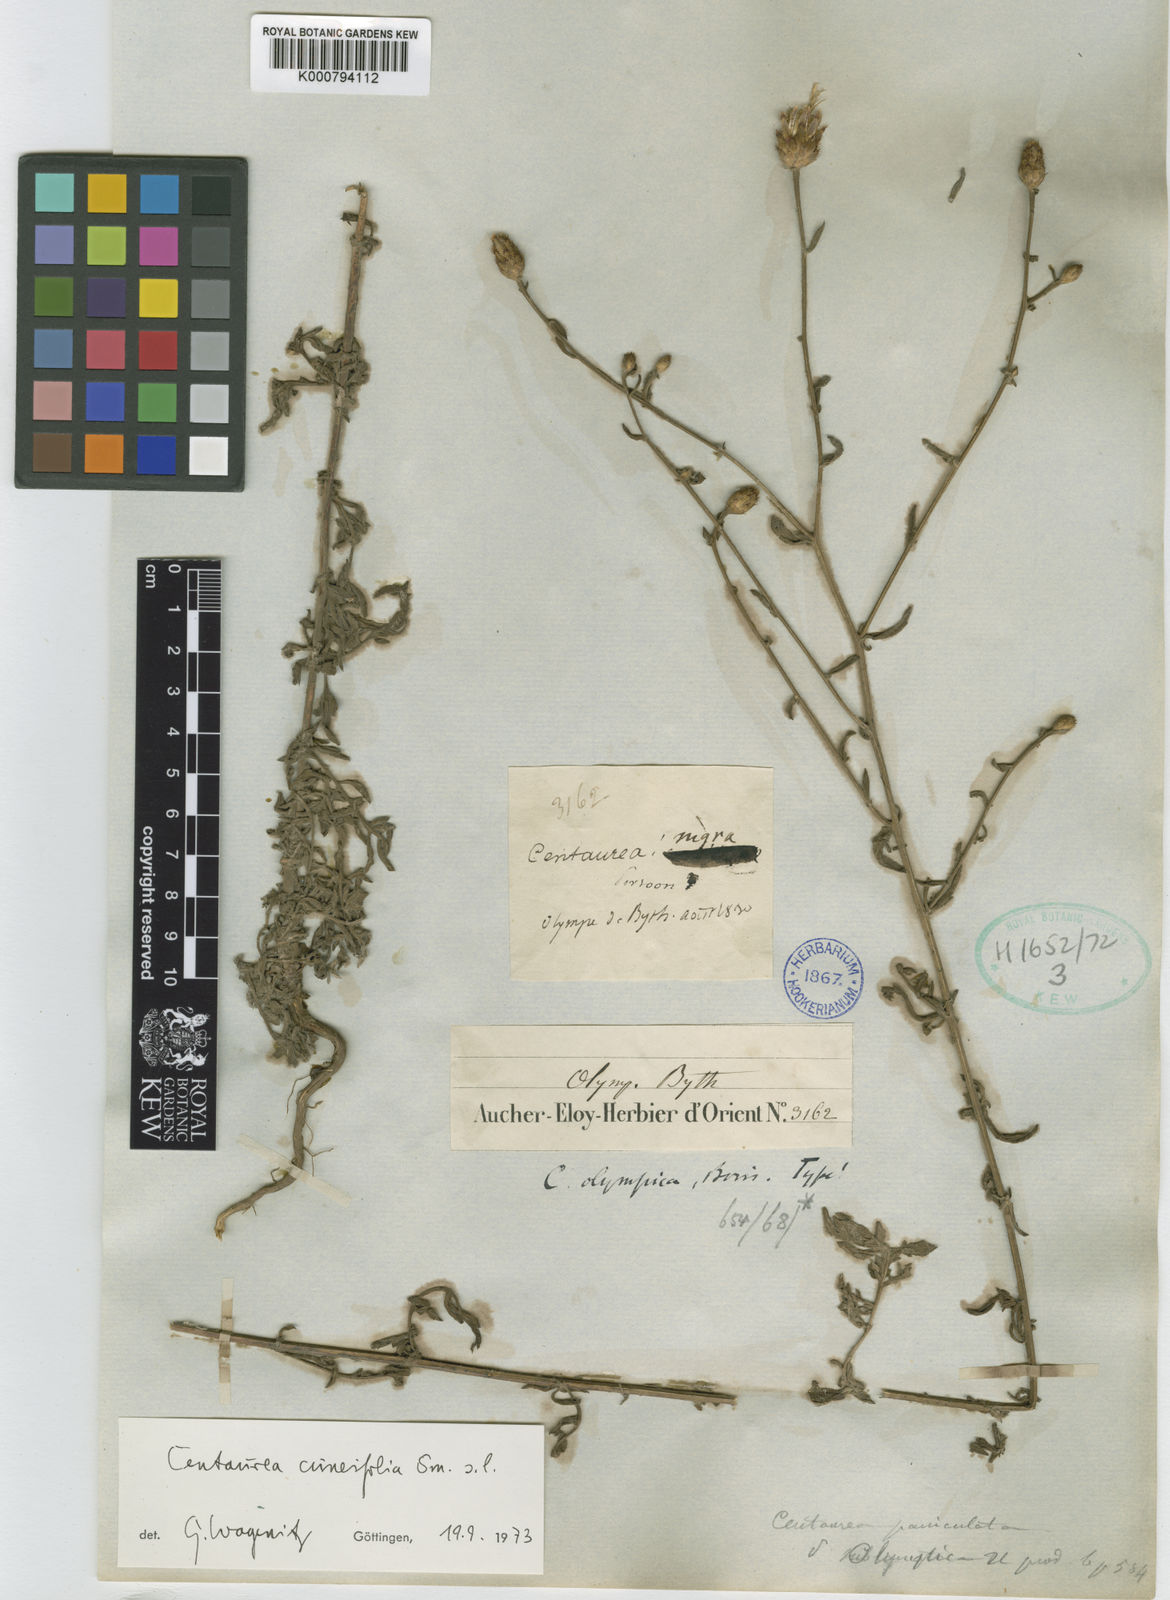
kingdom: Plantae
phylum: Tracheophyta
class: Magnoliopsida
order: Asterales
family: Asteraceae
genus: Centaurea
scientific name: Centaurea
